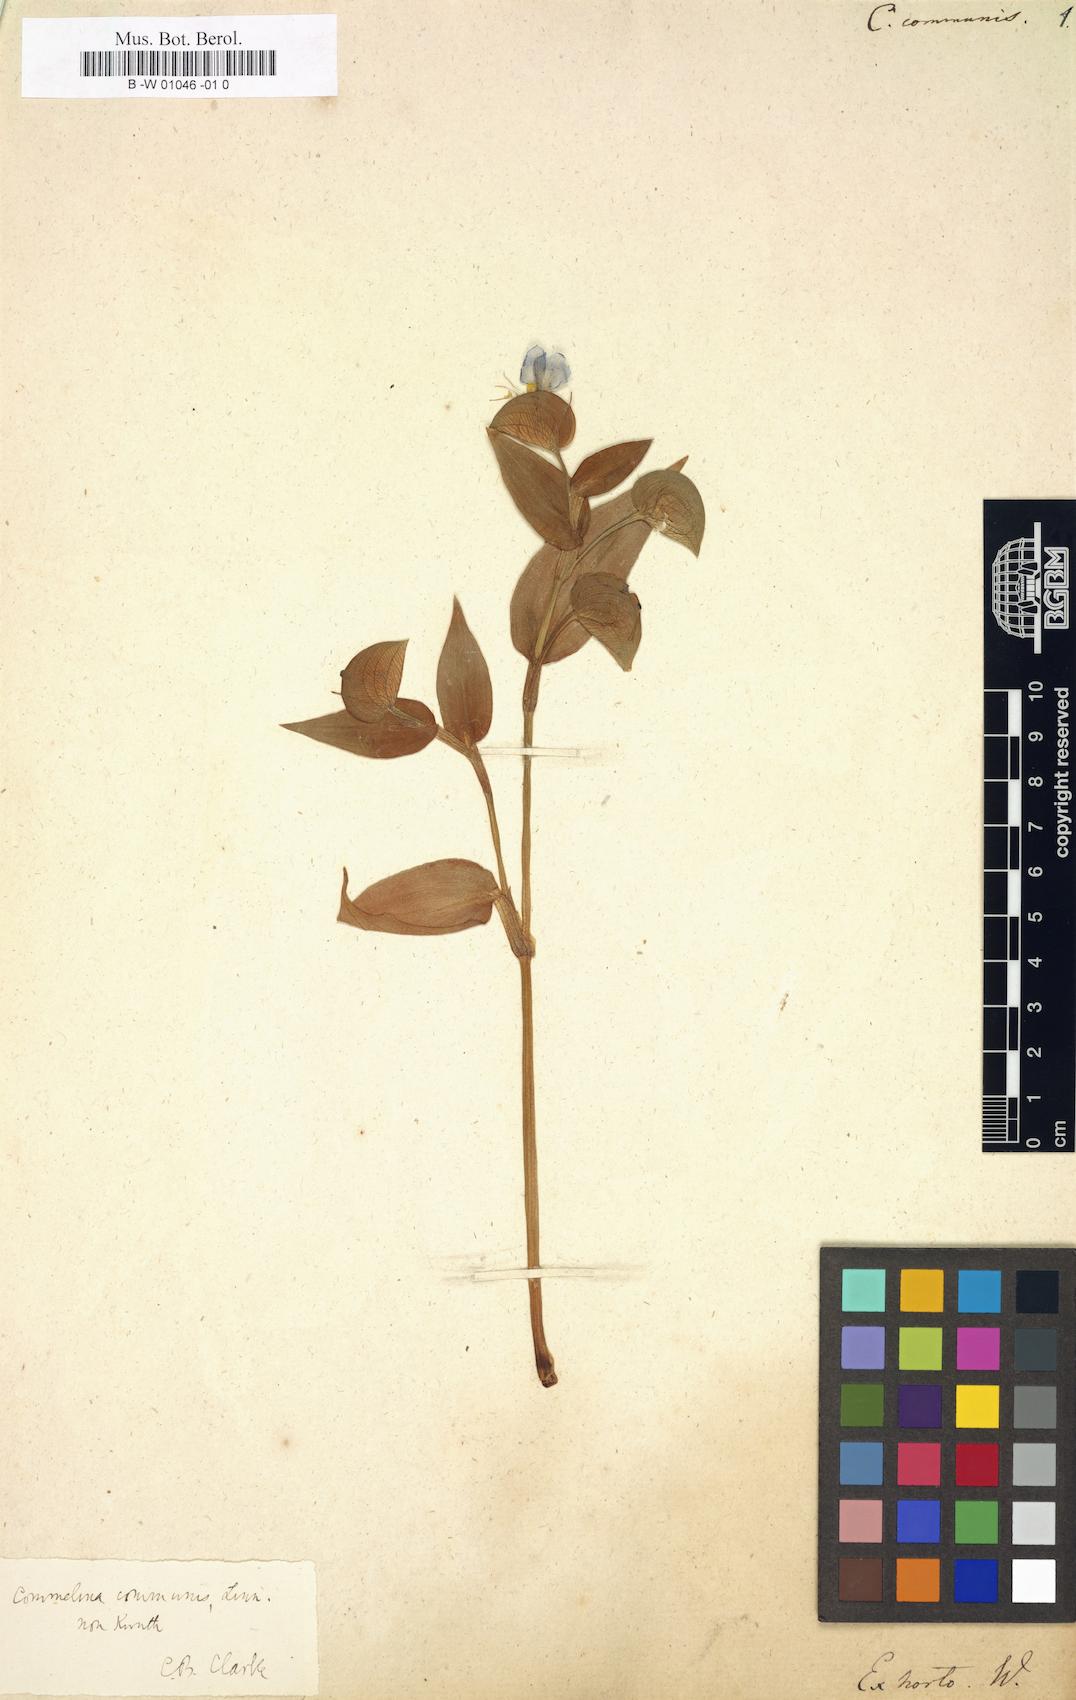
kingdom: Plantae
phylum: Tracheophyta
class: Liliopsida
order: Commelinales
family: Commelinaceae
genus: Commelina
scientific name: Commelina communis
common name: Asiatic dayflower
